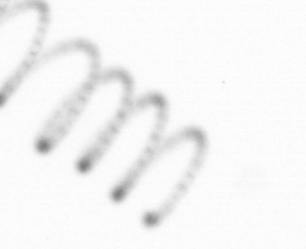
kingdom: Chromista
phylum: Ochrophyta
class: Bacillariophyceae
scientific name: Bacillariophyceae
